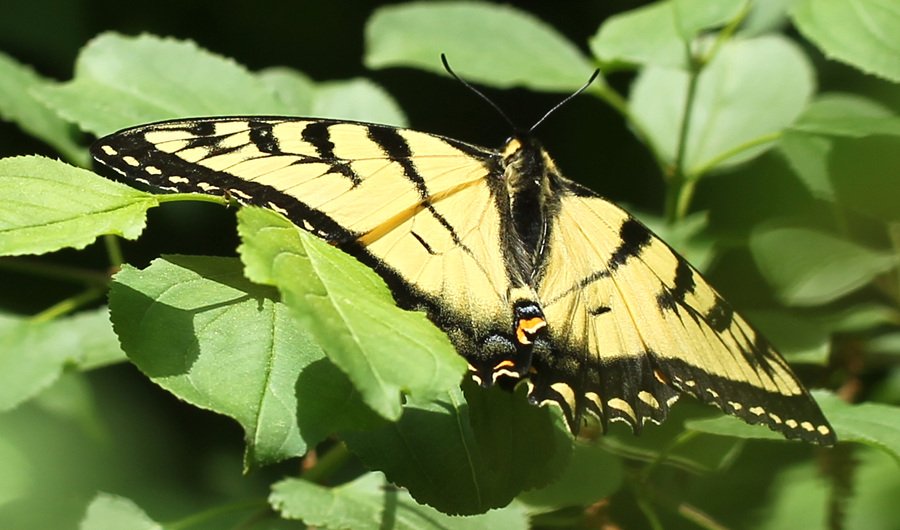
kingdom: Animalia
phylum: Arthropoda
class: Insecta
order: Lepidoptera
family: Papilionidae
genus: Pterourus
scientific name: Pterourus glaucus
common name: Eastern Tiger Swallowtail
